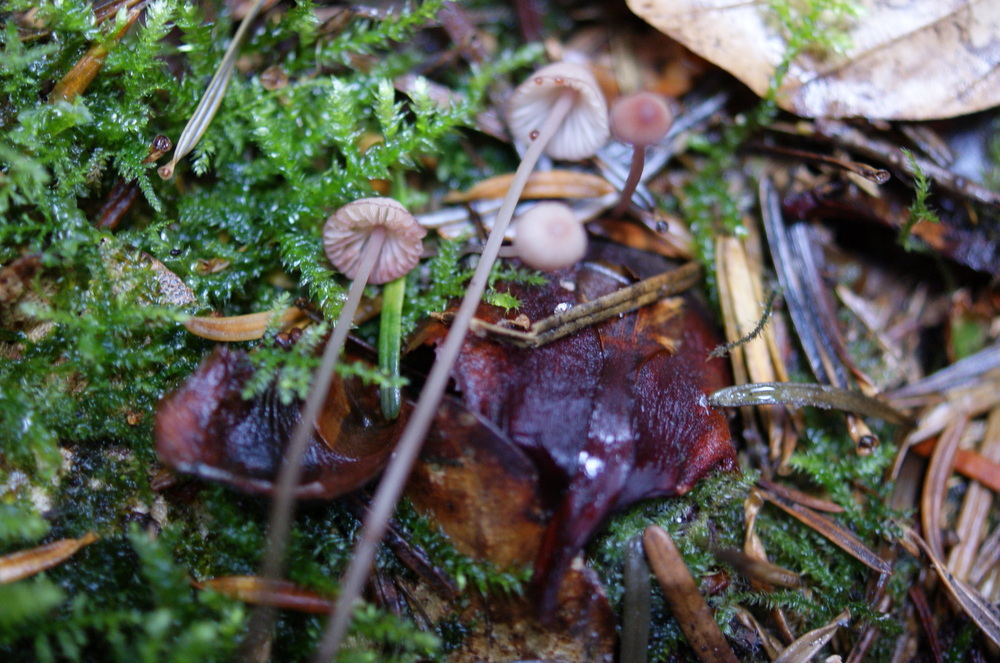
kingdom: Fungi
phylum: Basidiomycota
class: Agaricomycetes
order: Agaricales
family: Mycenaceae
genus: Mycena
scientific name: Mycena sanguinolenta
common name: rødmælket huesvamp
